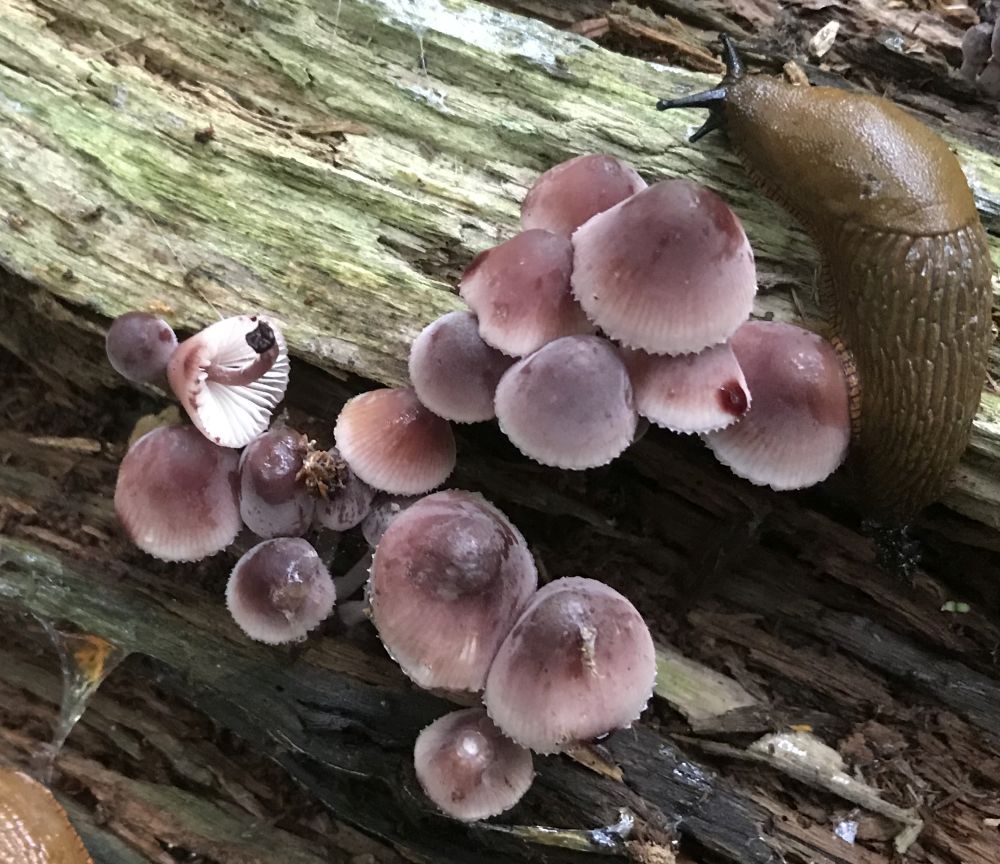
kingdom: Fungi
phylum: Basidiomycota
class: Agaricomycetes
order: Agaricales
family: Mycenaceae
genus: Mycena
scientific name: Mycena haematopus
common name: blødende huesvamp
